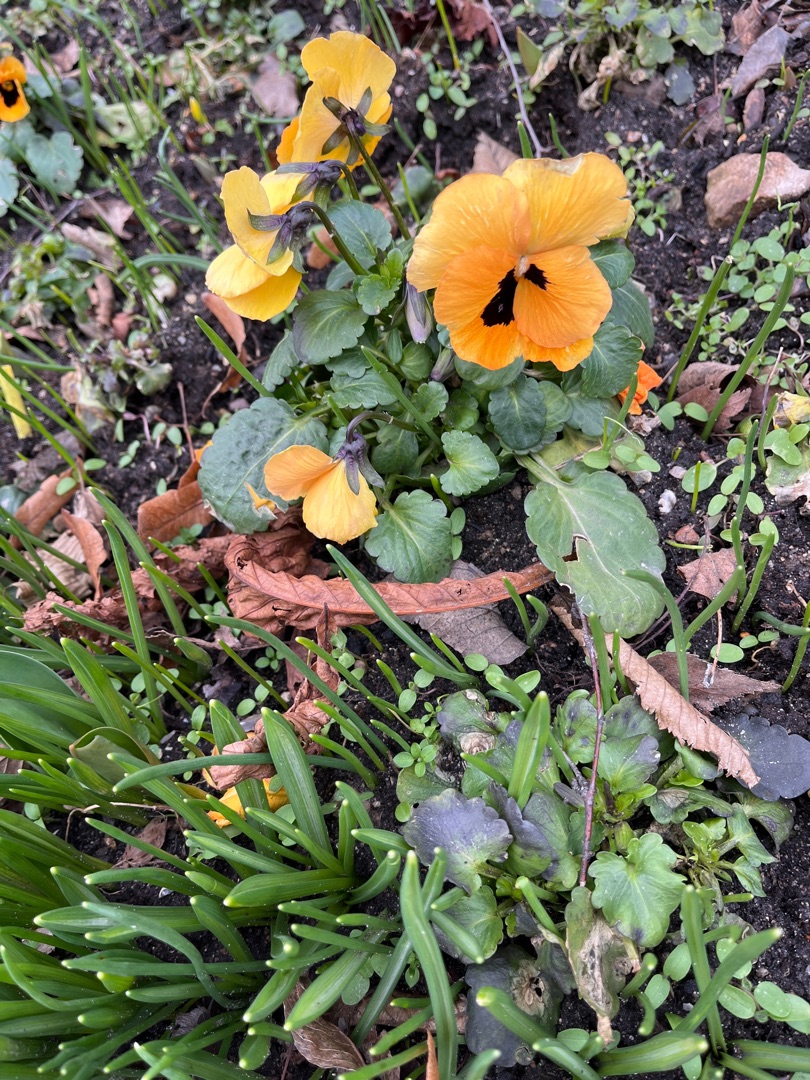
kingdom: Plantae
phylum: Tracheophyta
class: Magnoliopsida
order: Malpighiales
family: Violaceae
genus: Viola
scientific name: Viola wittrockiana
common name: Have-stedmoderblomst
